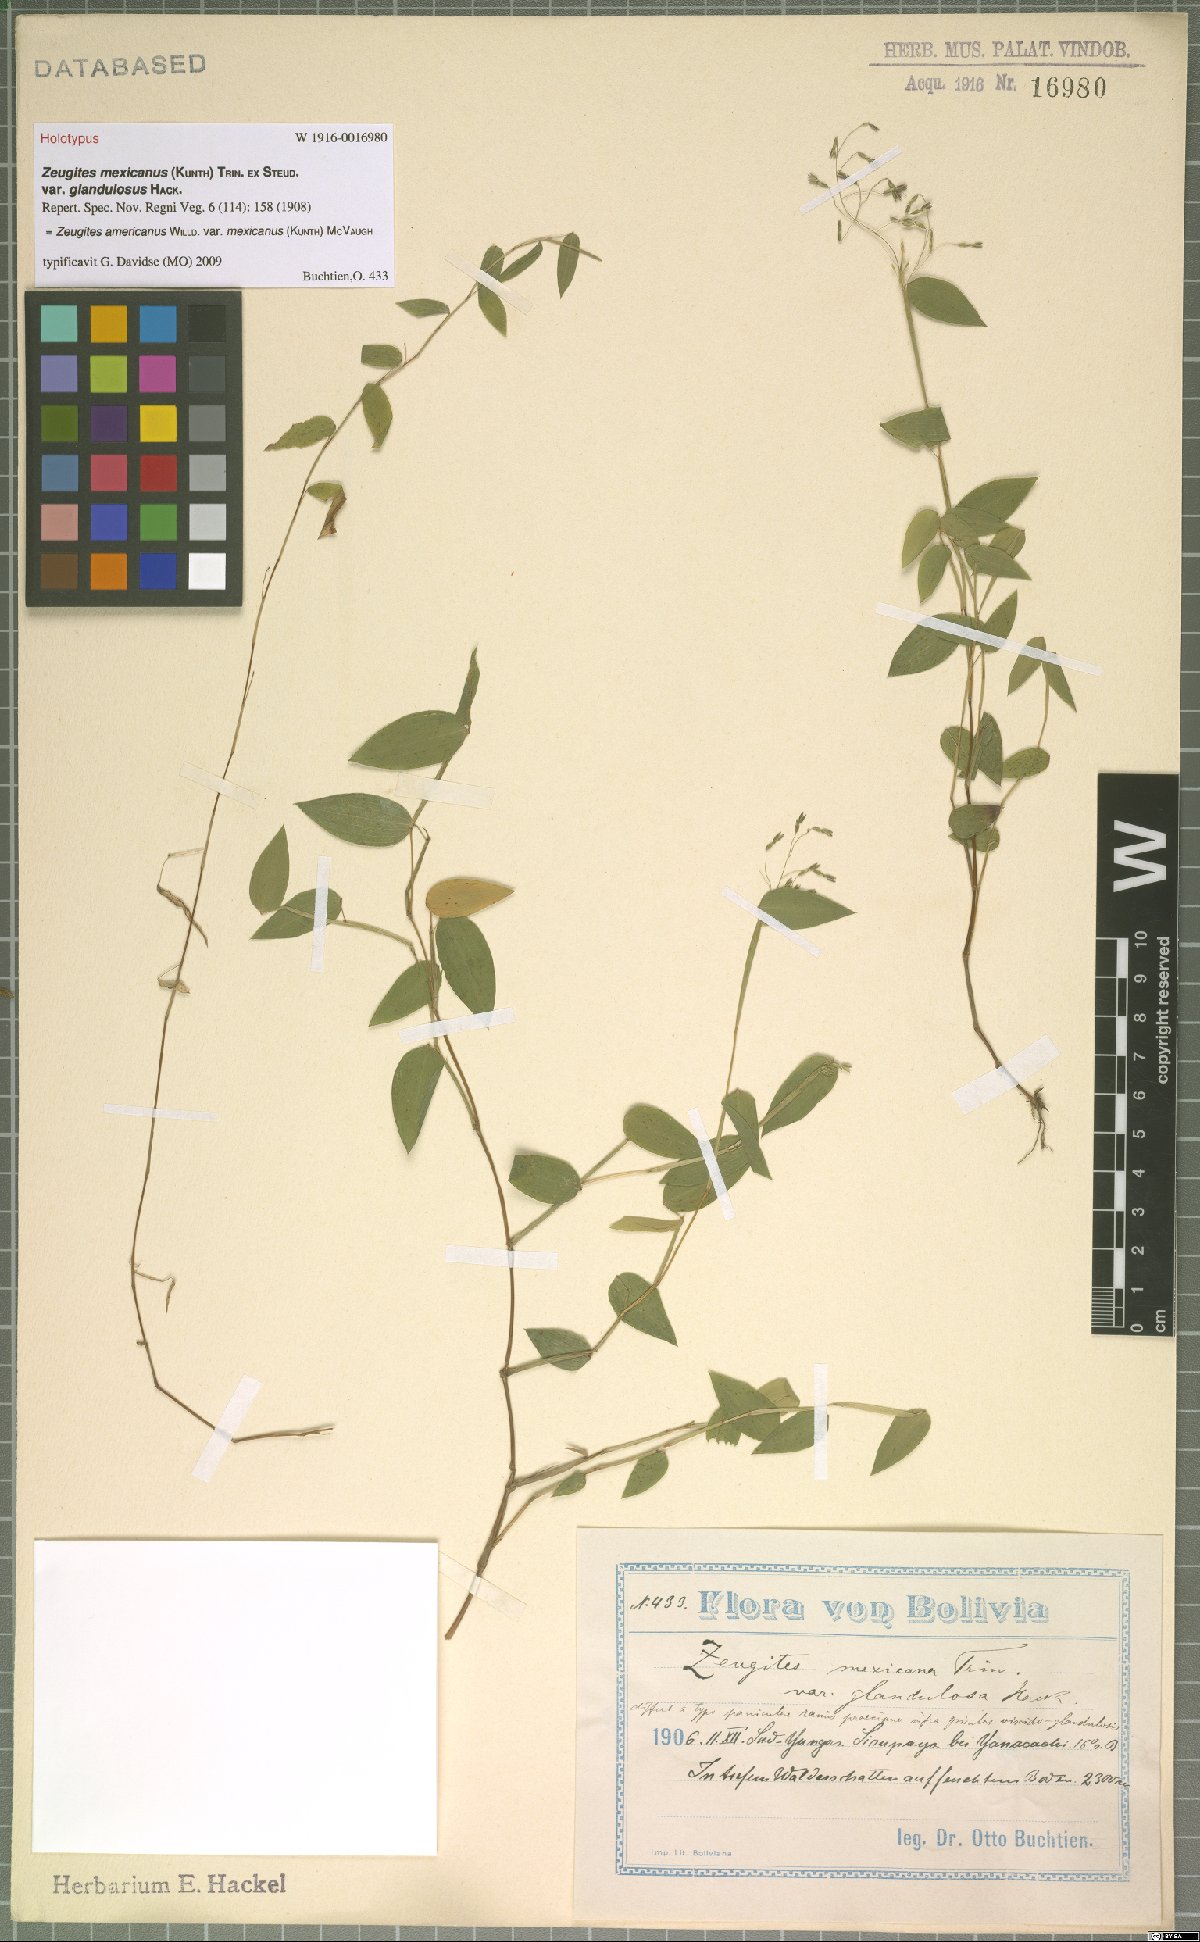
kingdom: Plantae
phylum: Tracheophyta
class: Liliopsida
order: Poales
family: Poaceae
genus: Zeugites
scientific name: Zeugites americanus
